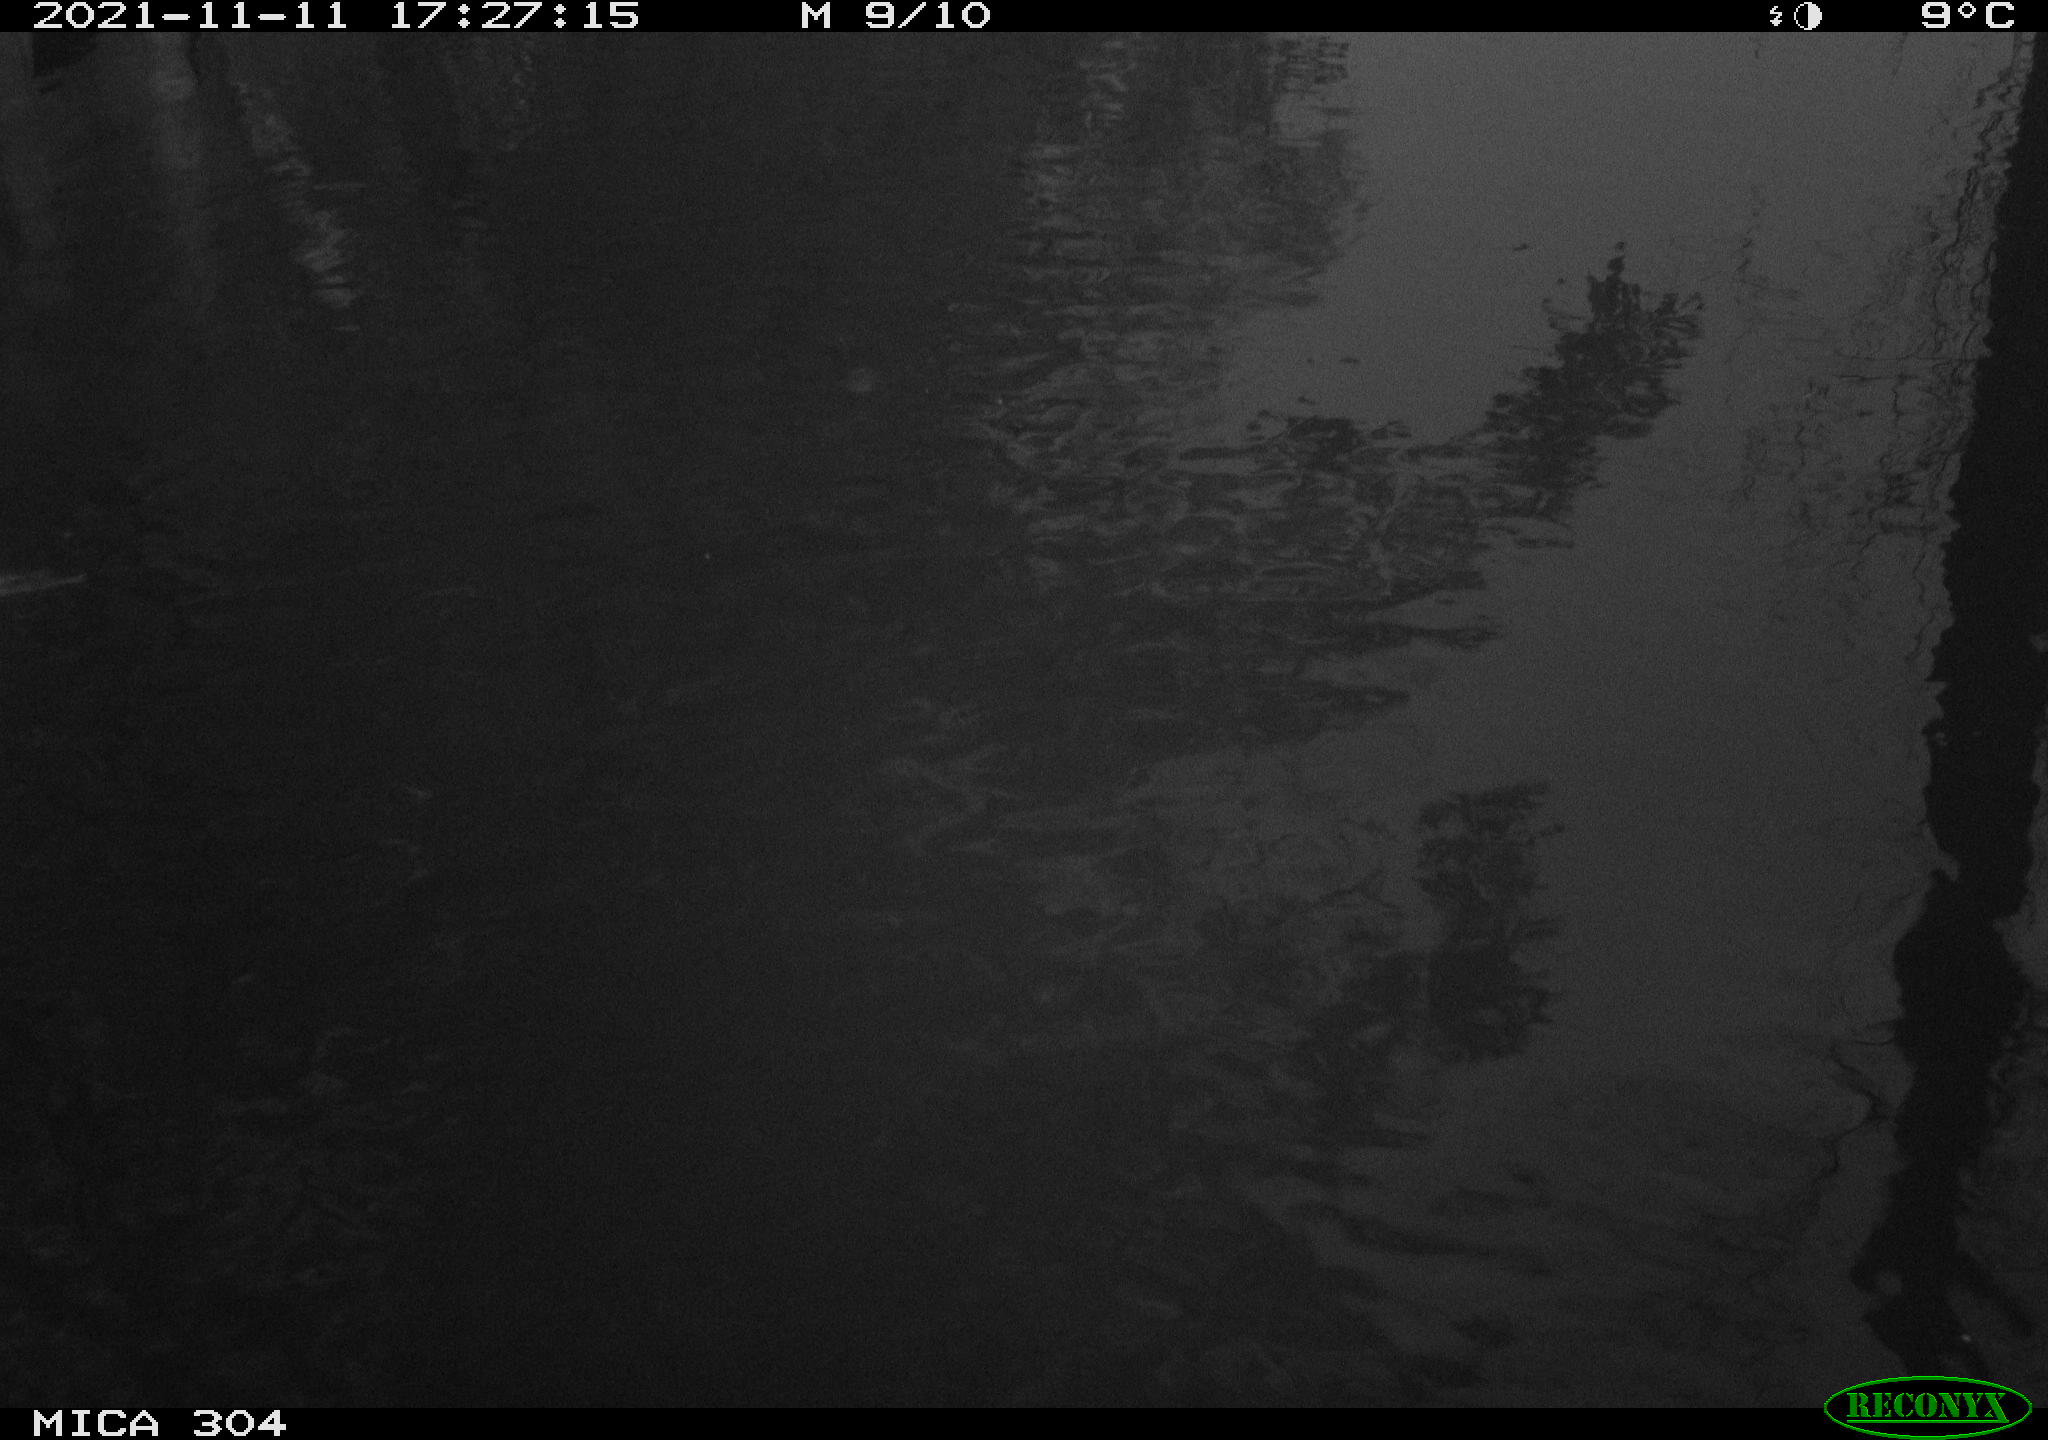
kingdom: Animalia
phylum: Chordata
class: Aves
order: Gruiformes
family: Rallidae
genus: Fulica
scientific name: Fulica atra
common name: Eurasian coot
